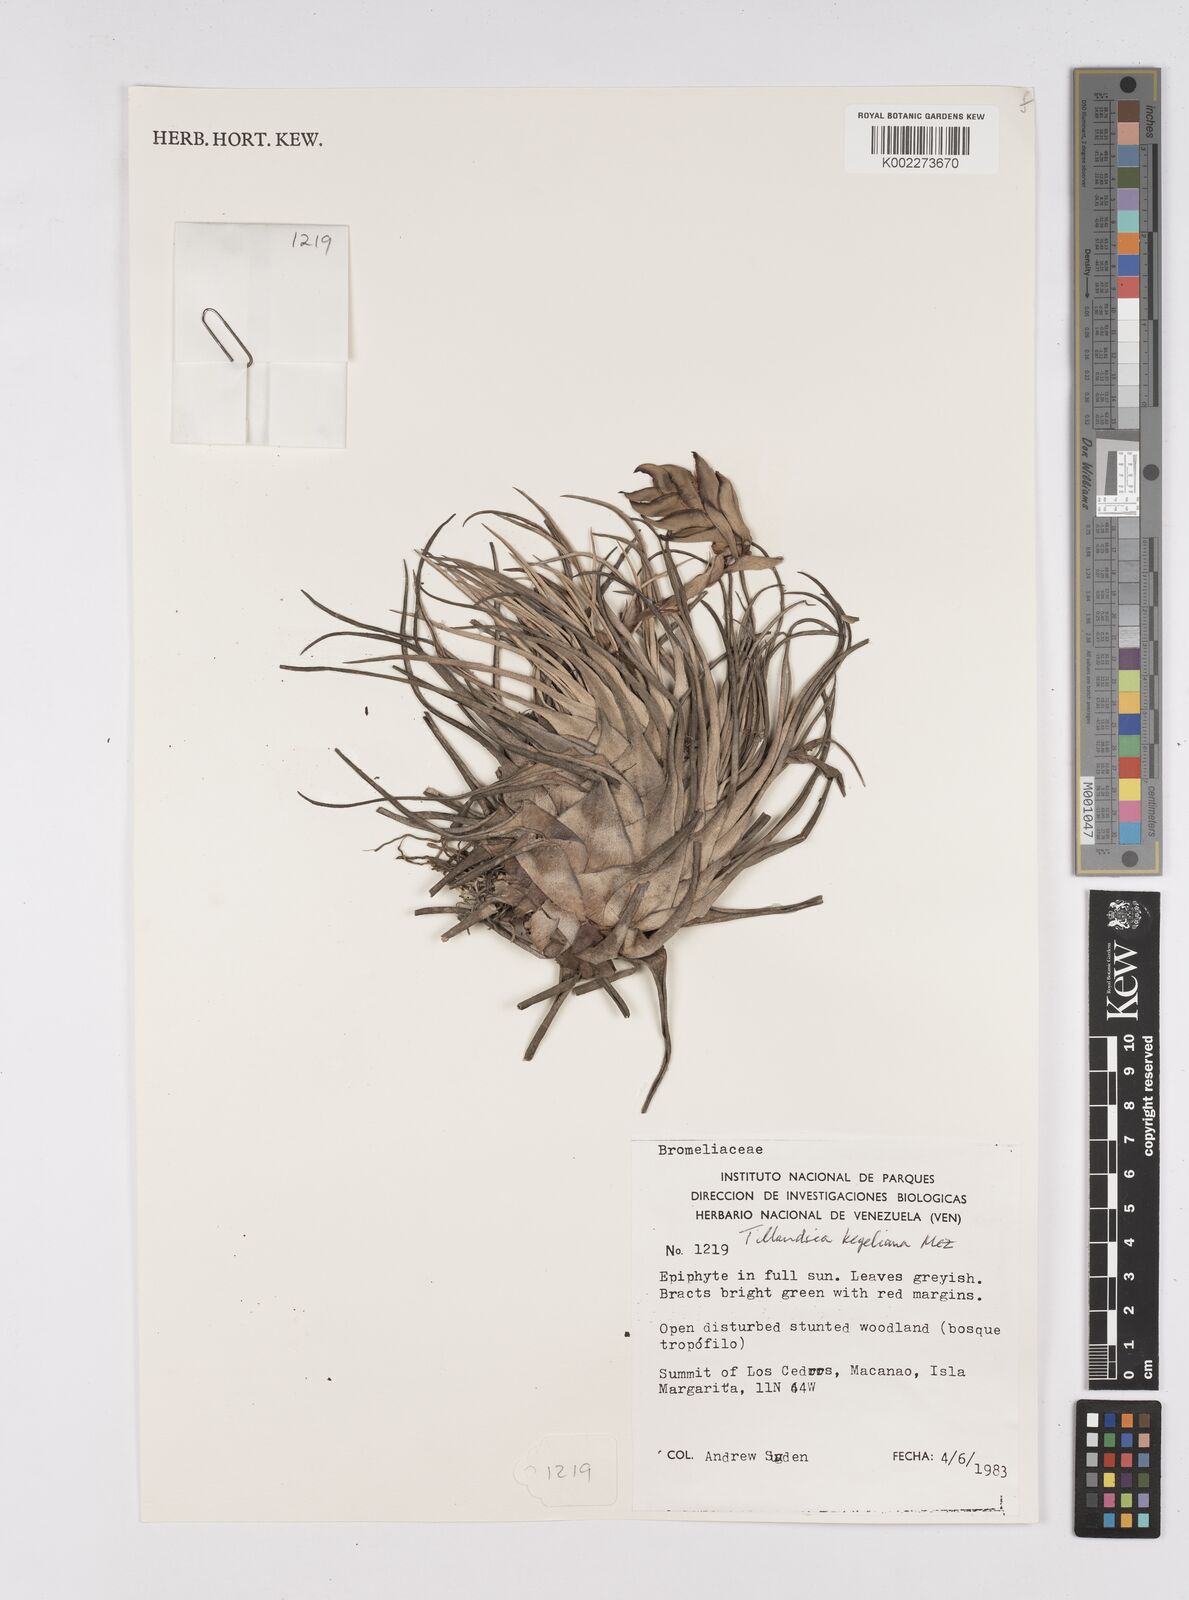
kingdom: Plantae
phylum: Tracheophyta
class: Liliopsida
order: Poales
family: Bromeliaceae
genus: Tillandsia
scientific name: Tillandsia kegeliana
